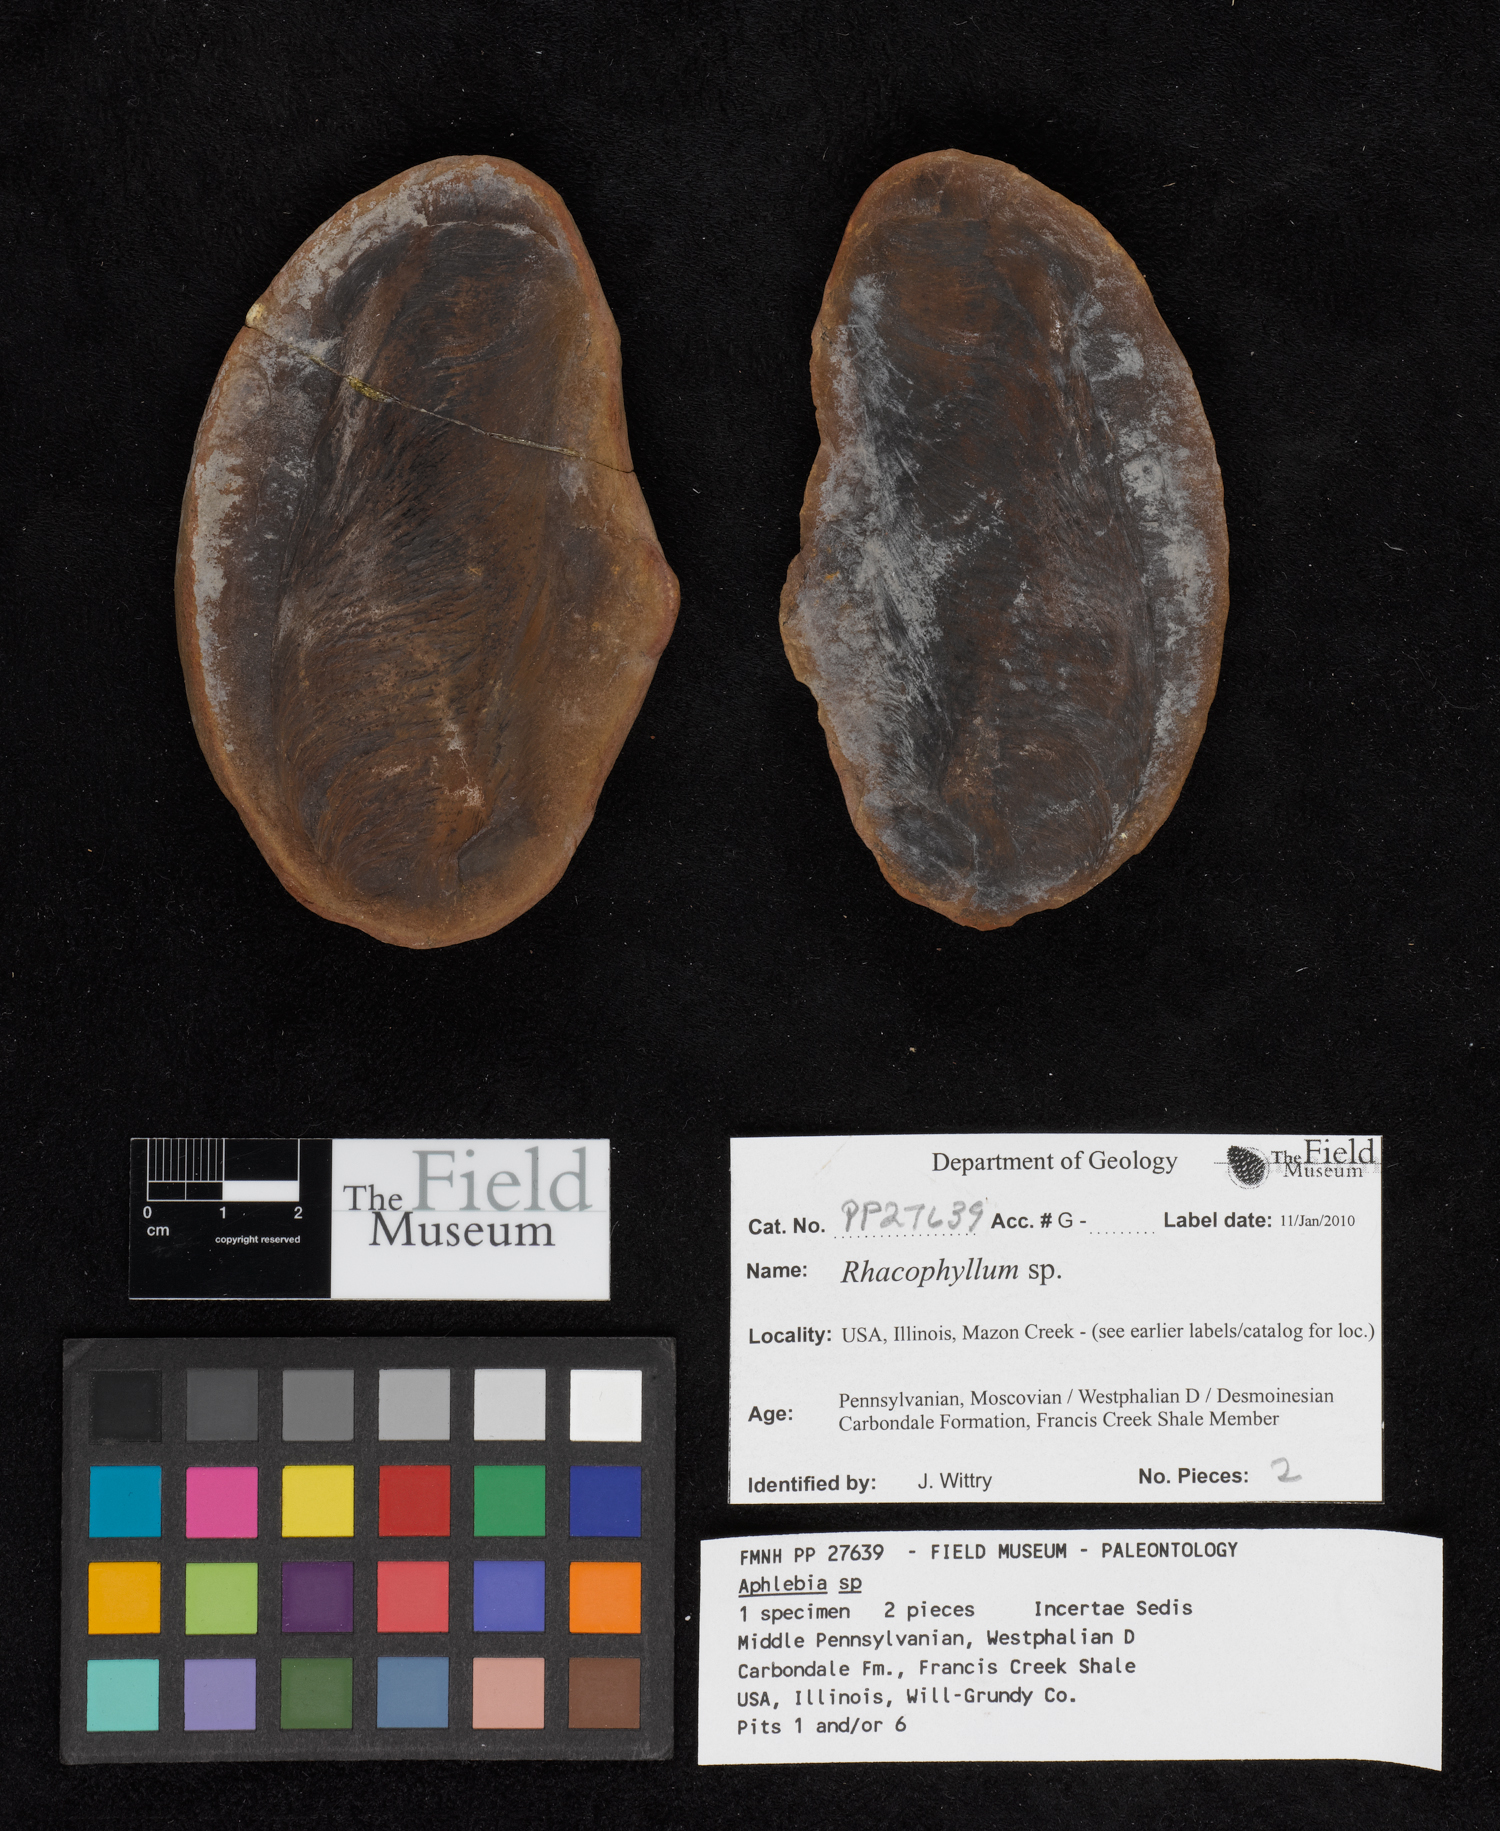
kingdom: Plantae
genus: Rhacophyllum
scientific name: Rhacophyllum
